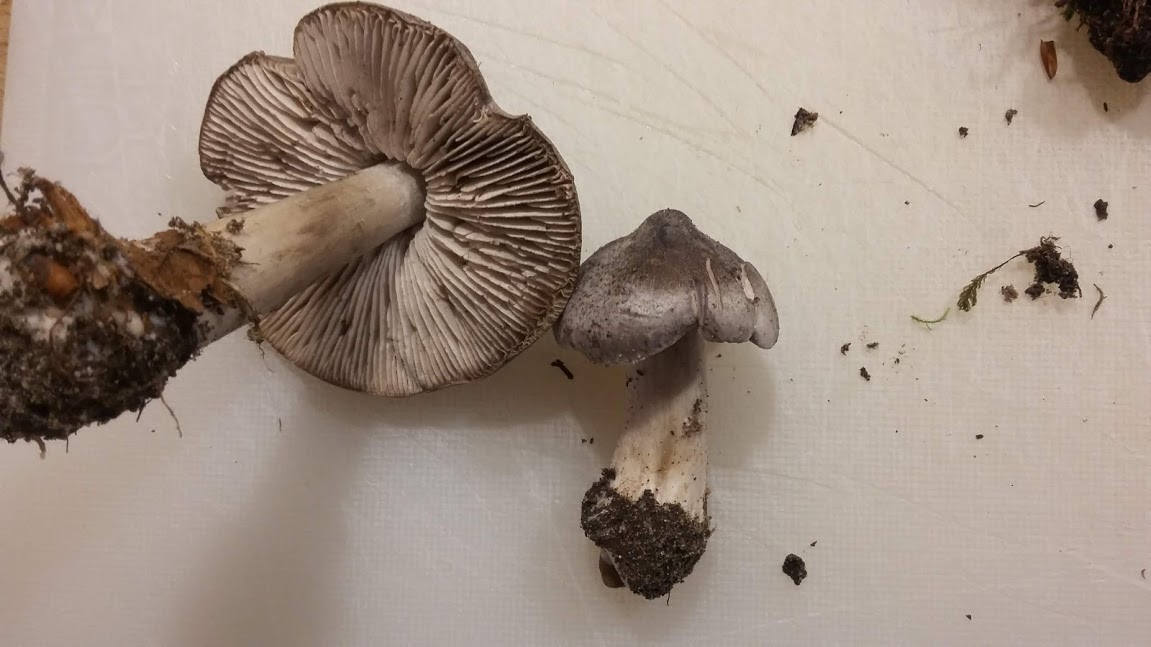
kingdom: Fungi
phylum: Basidiomycota
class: Agaricomycetes
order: Agaricales
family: Tricholomataceae
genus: Tricholoma
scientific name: Tricholoma sciodes
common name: stribet ridderhat
